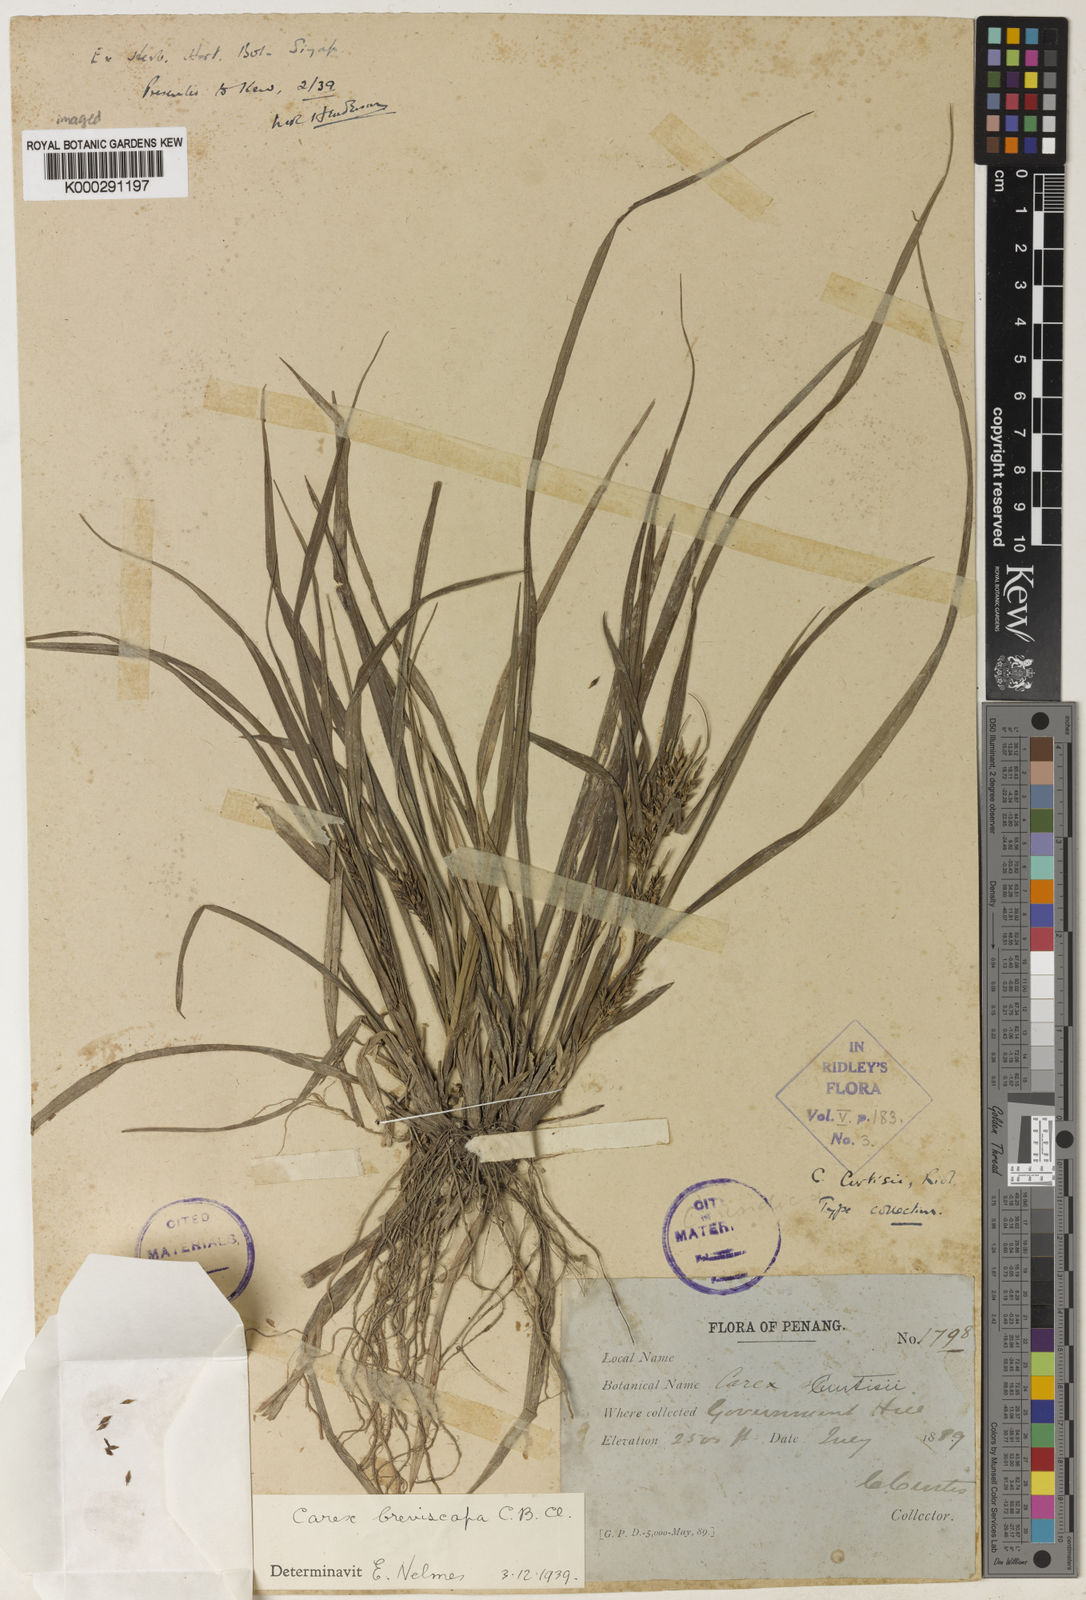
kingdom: Plantae
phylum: Tracheophyta
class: Liliopsida
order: Poales
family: Cyperaceae
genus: Carex
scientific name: Carex breviscapa
